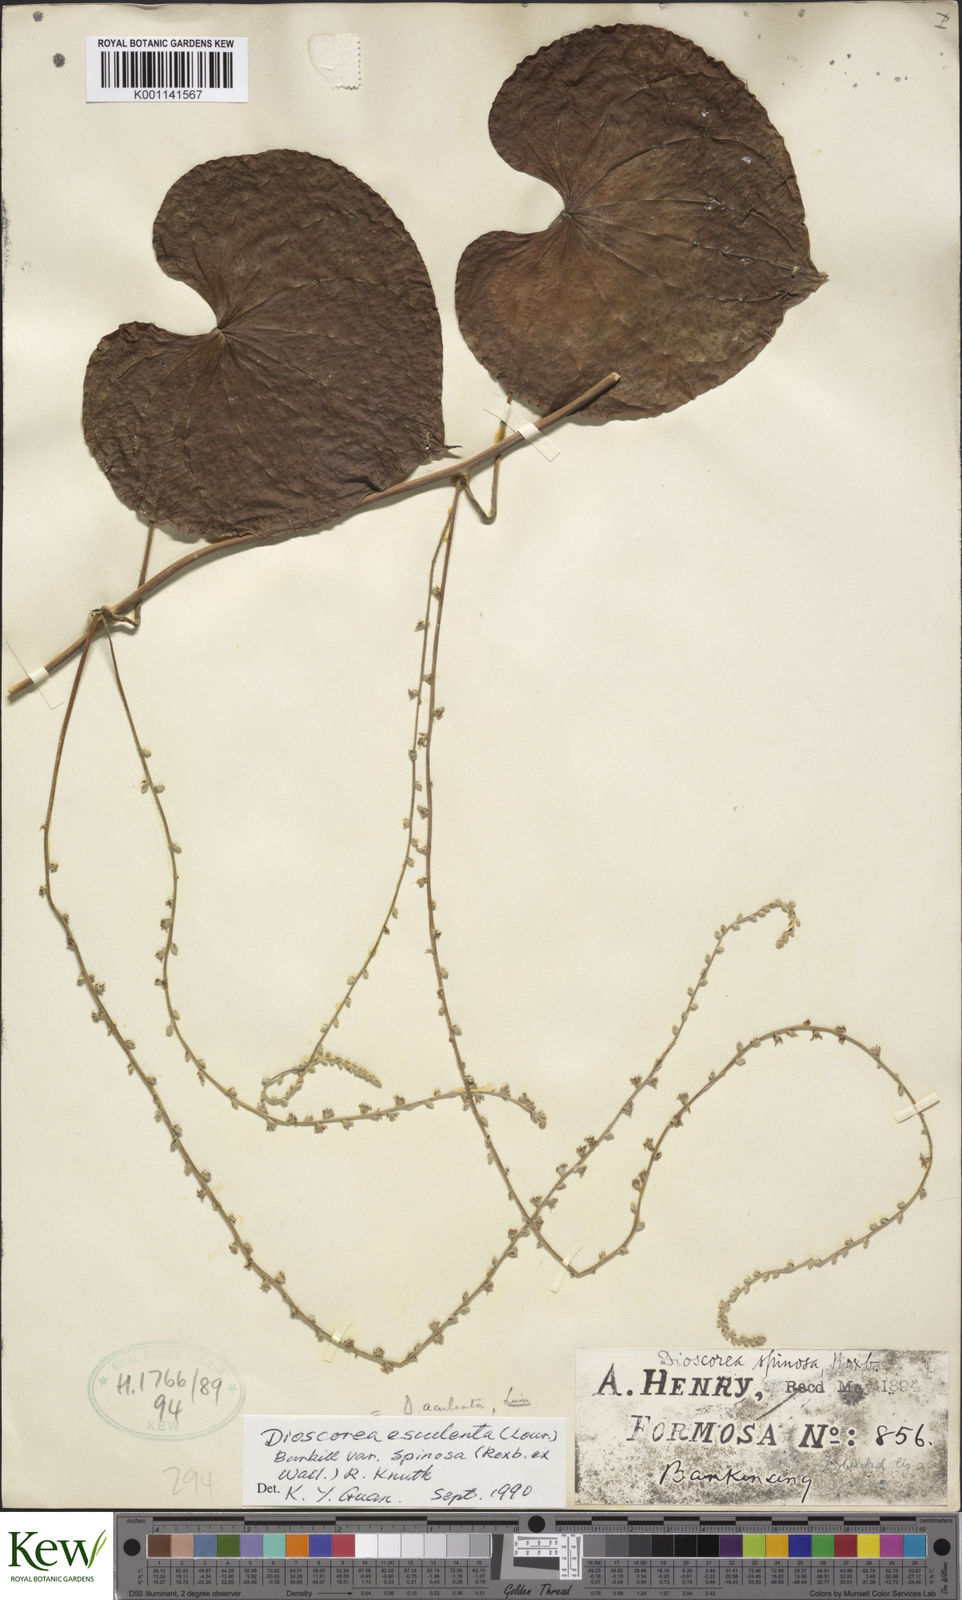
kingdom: Plantae
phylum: Tracheophyta
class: Liliopsida
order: Dioscoreales
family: Dioscoreaceae
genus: Dioscorea
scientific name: Dioscorea esculenta
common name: Chinese yam
